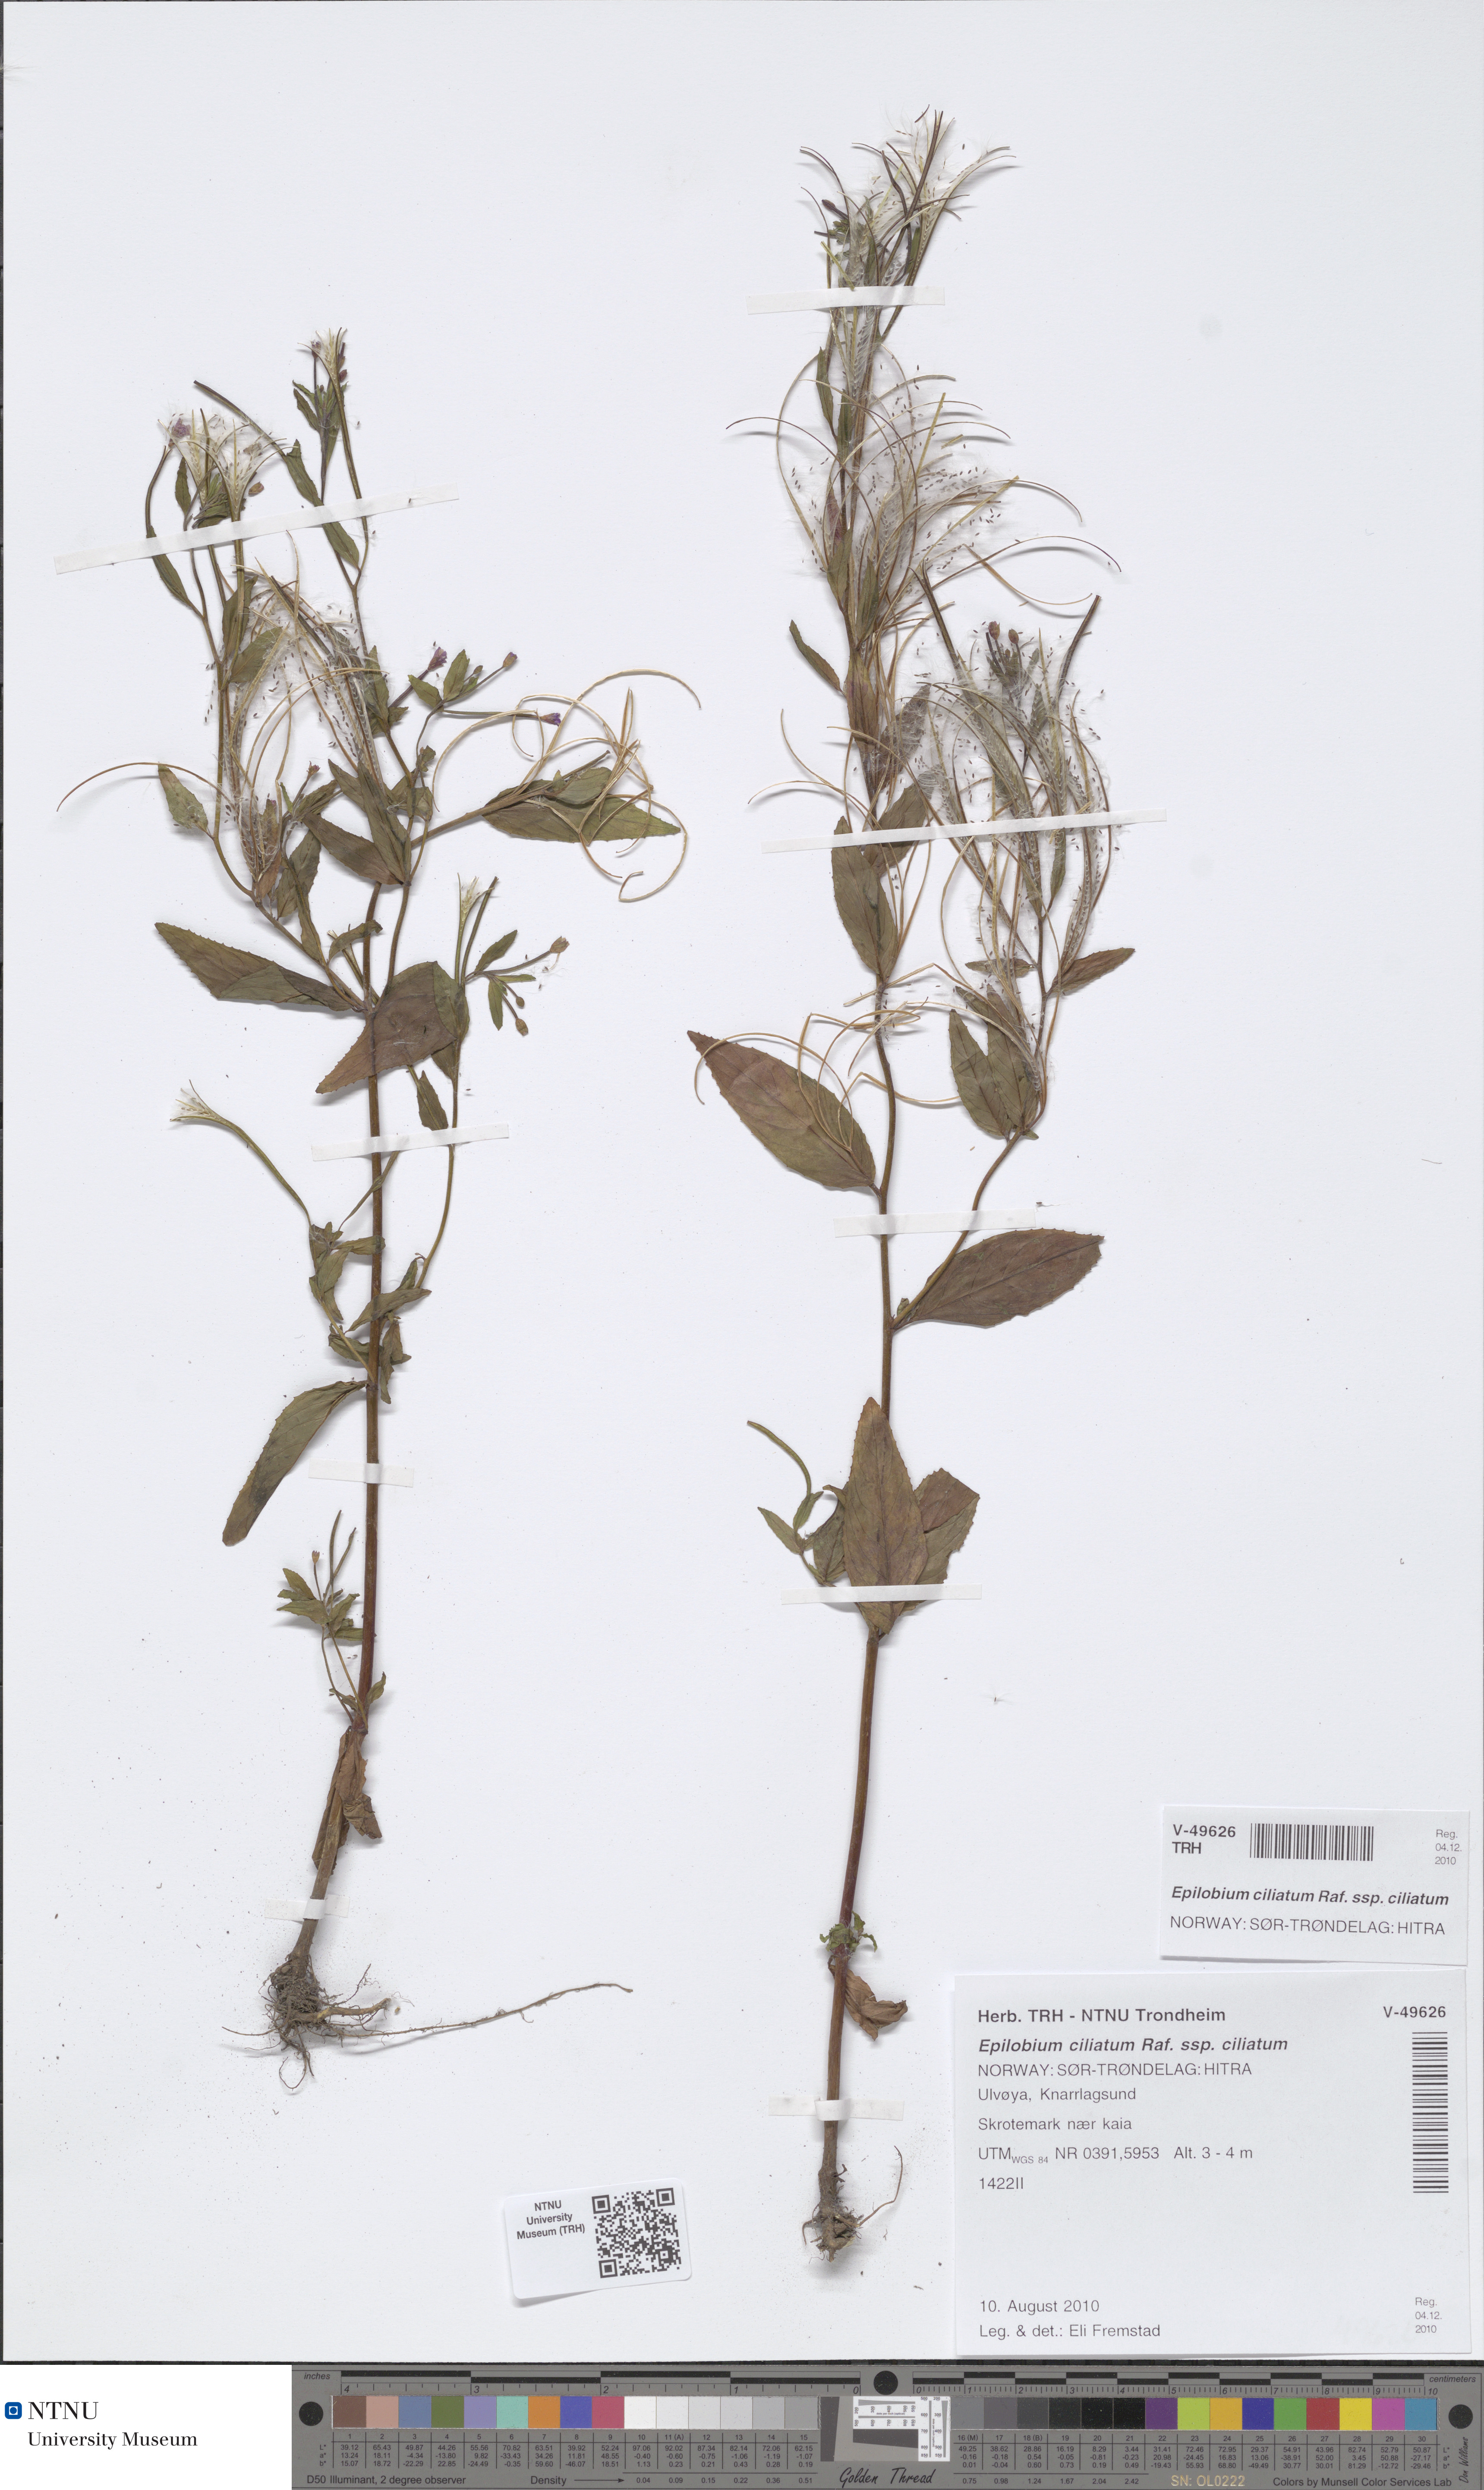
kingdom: Plantae
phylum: Tracheophyta
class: Magnoliopsida
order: Myrtales
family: Onagraceae
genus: Epilobium
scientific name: Epilobium ciliatum
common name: American willowherb
